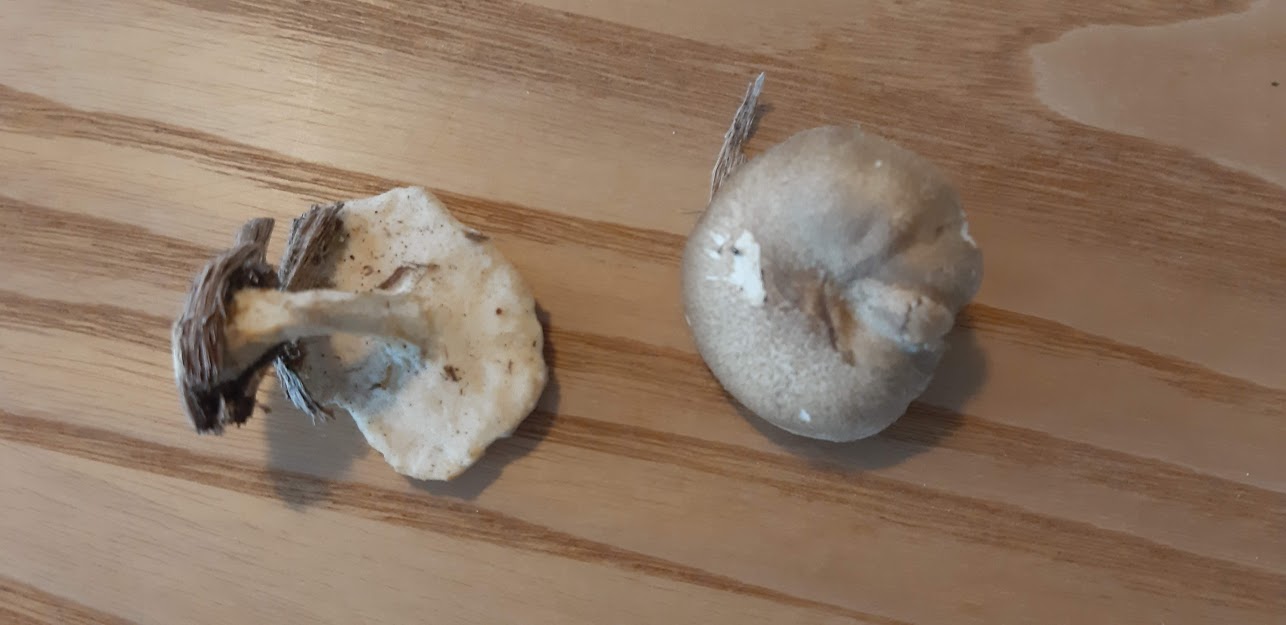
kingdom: Fungi
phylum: Basidiomycota
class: Agaricomycetes
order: Polyporales
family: Polyporaceae
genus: Lentinus
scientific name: Lentinus substrictus
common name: forårs-stilkporesvamp
